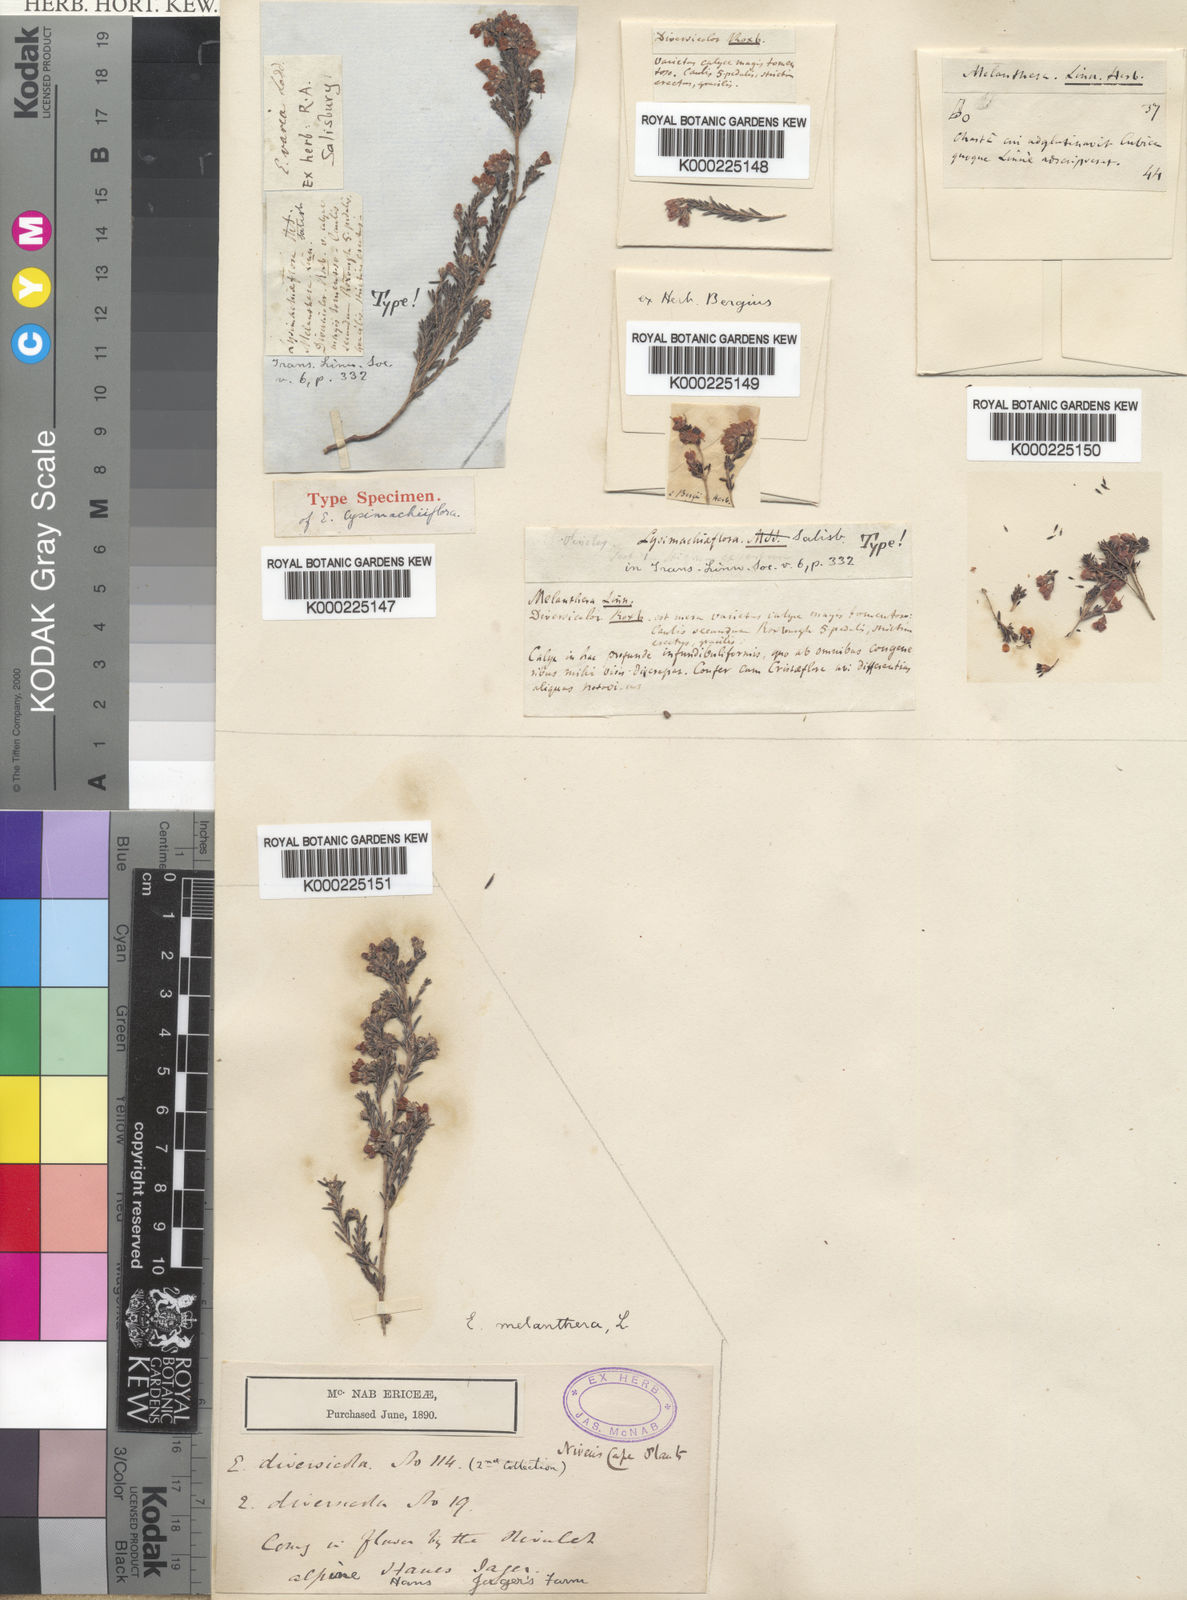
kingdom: Plantae
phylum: Tracheophyta
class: Magnoliopsida
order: Ericales
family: Ericaceae
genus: Erica
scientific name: Erica melanthera
